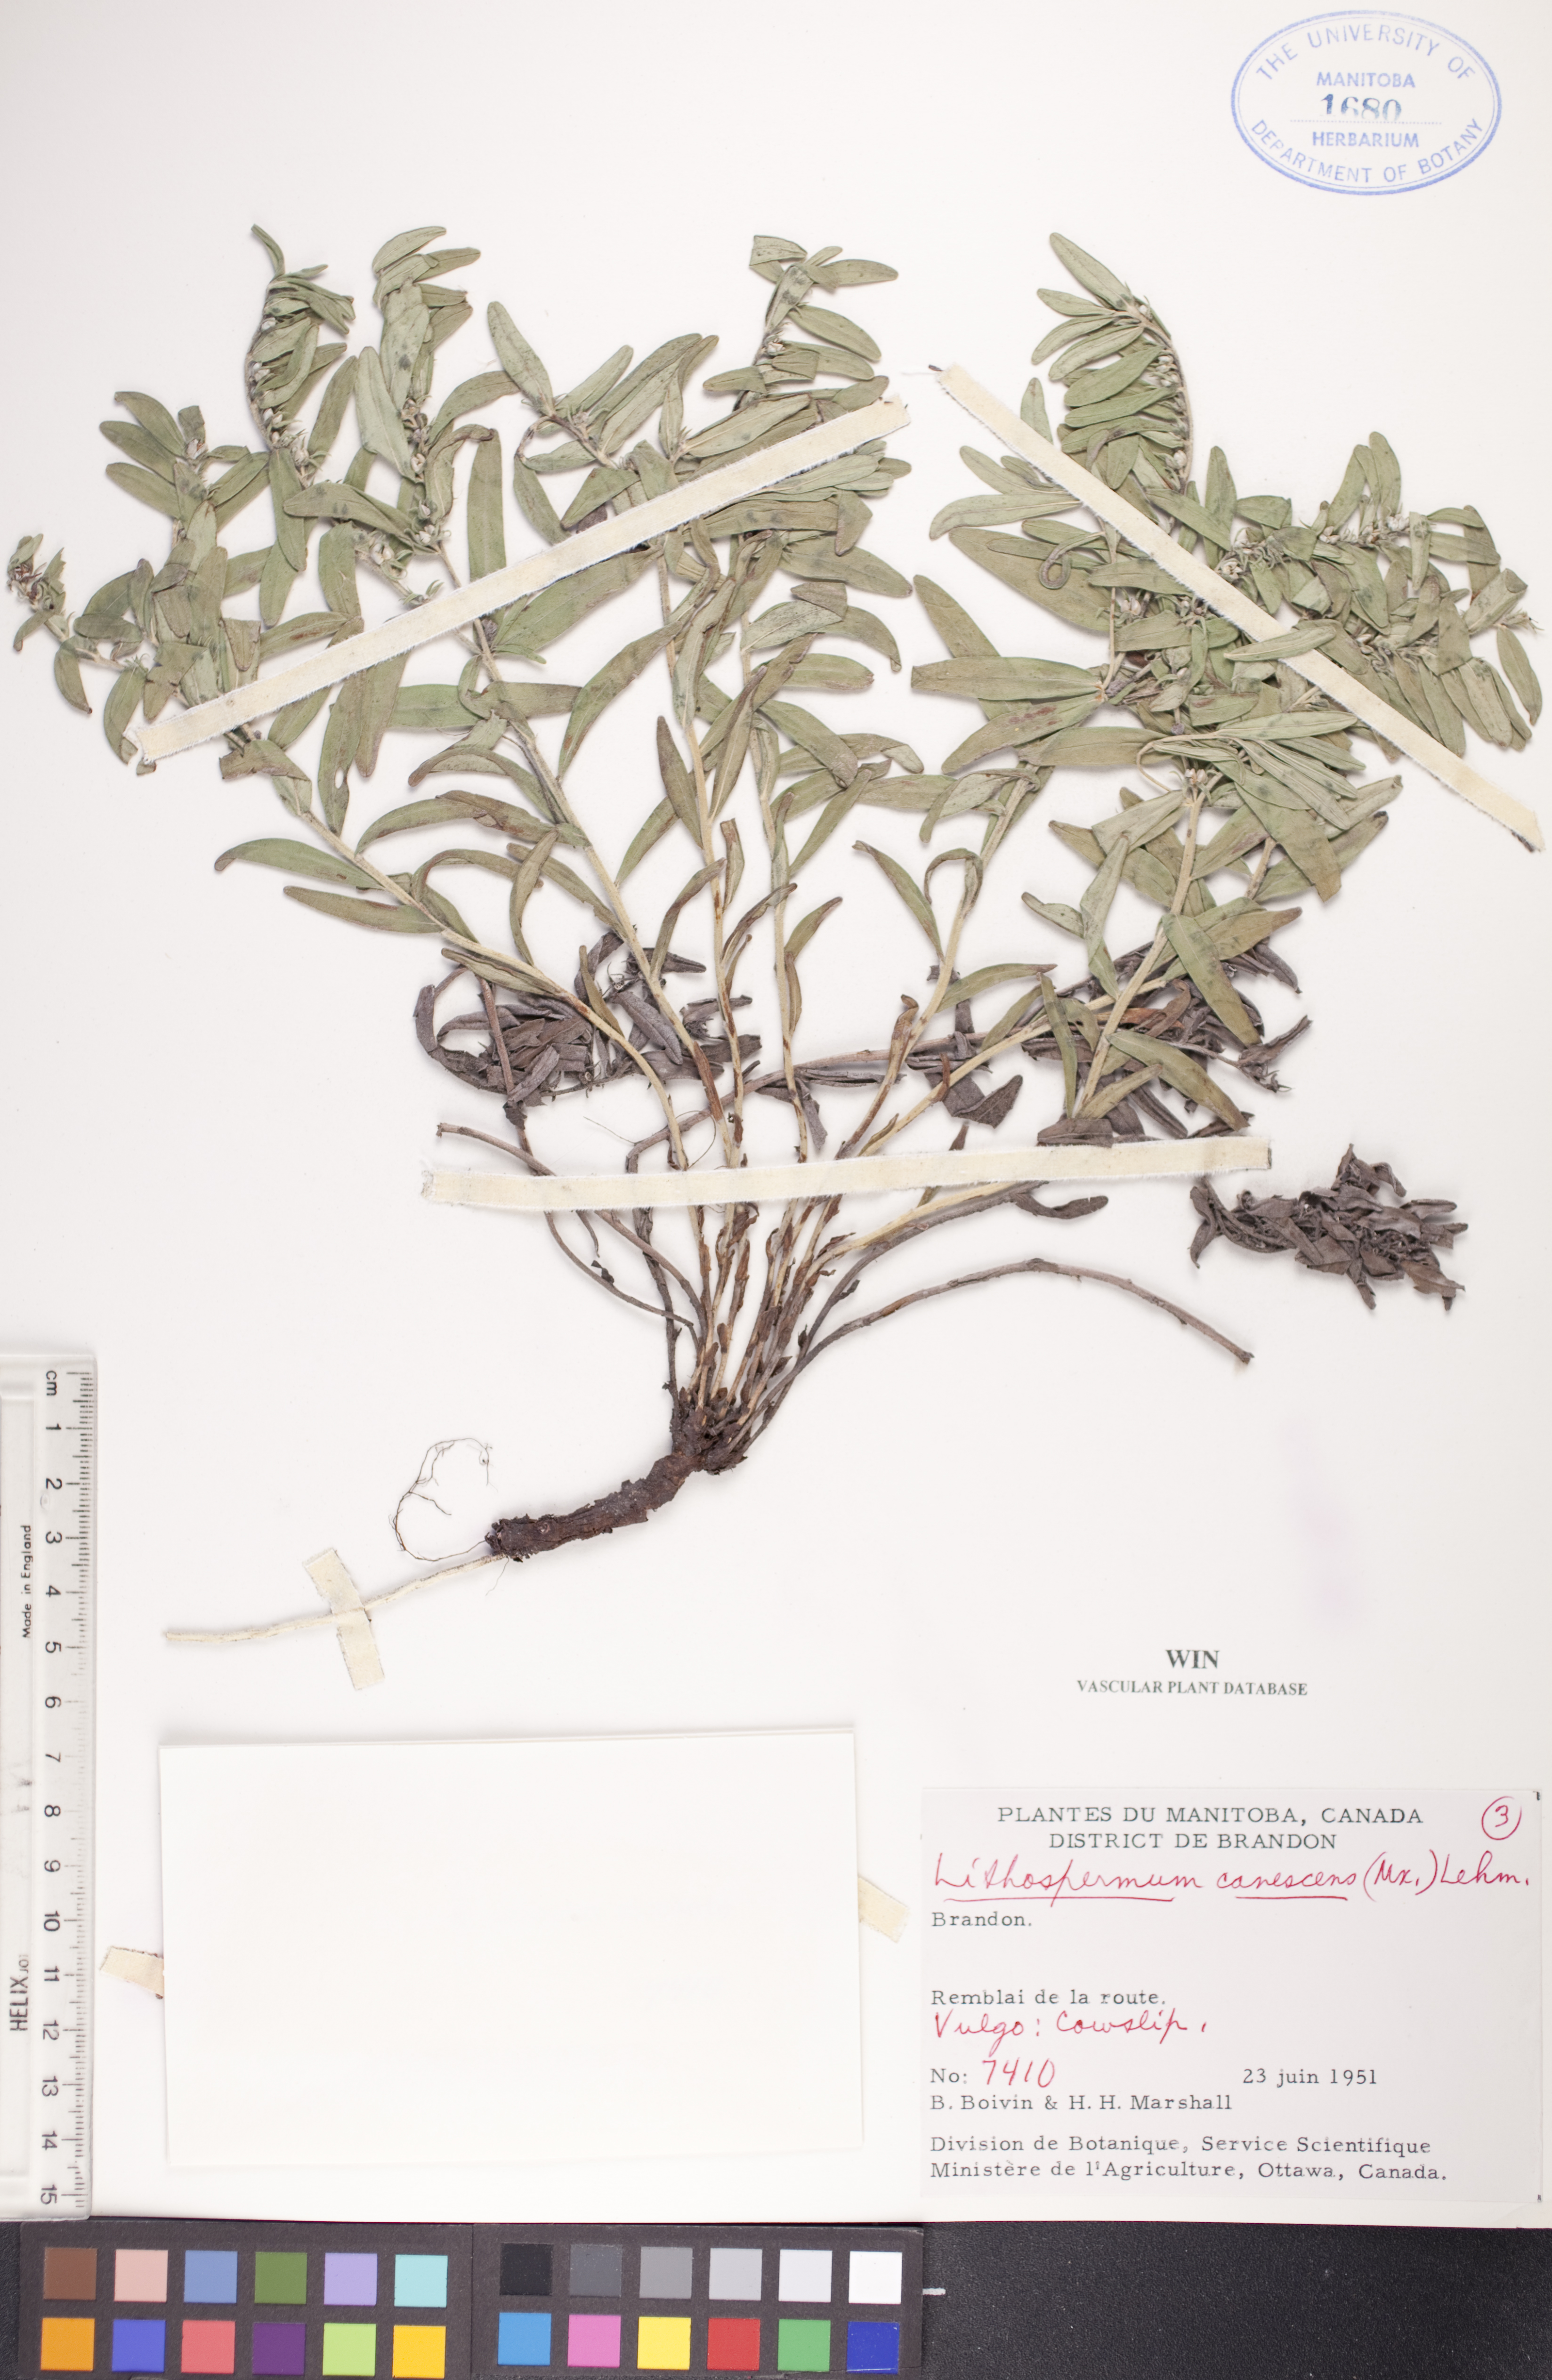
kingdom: Plantae
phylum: Tracheophyta
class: Magnoliopsida
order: Boraginales
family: Boraginaceae
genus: Lithospermum
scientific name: Lithospermum canescens
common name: Hoary puccoon
